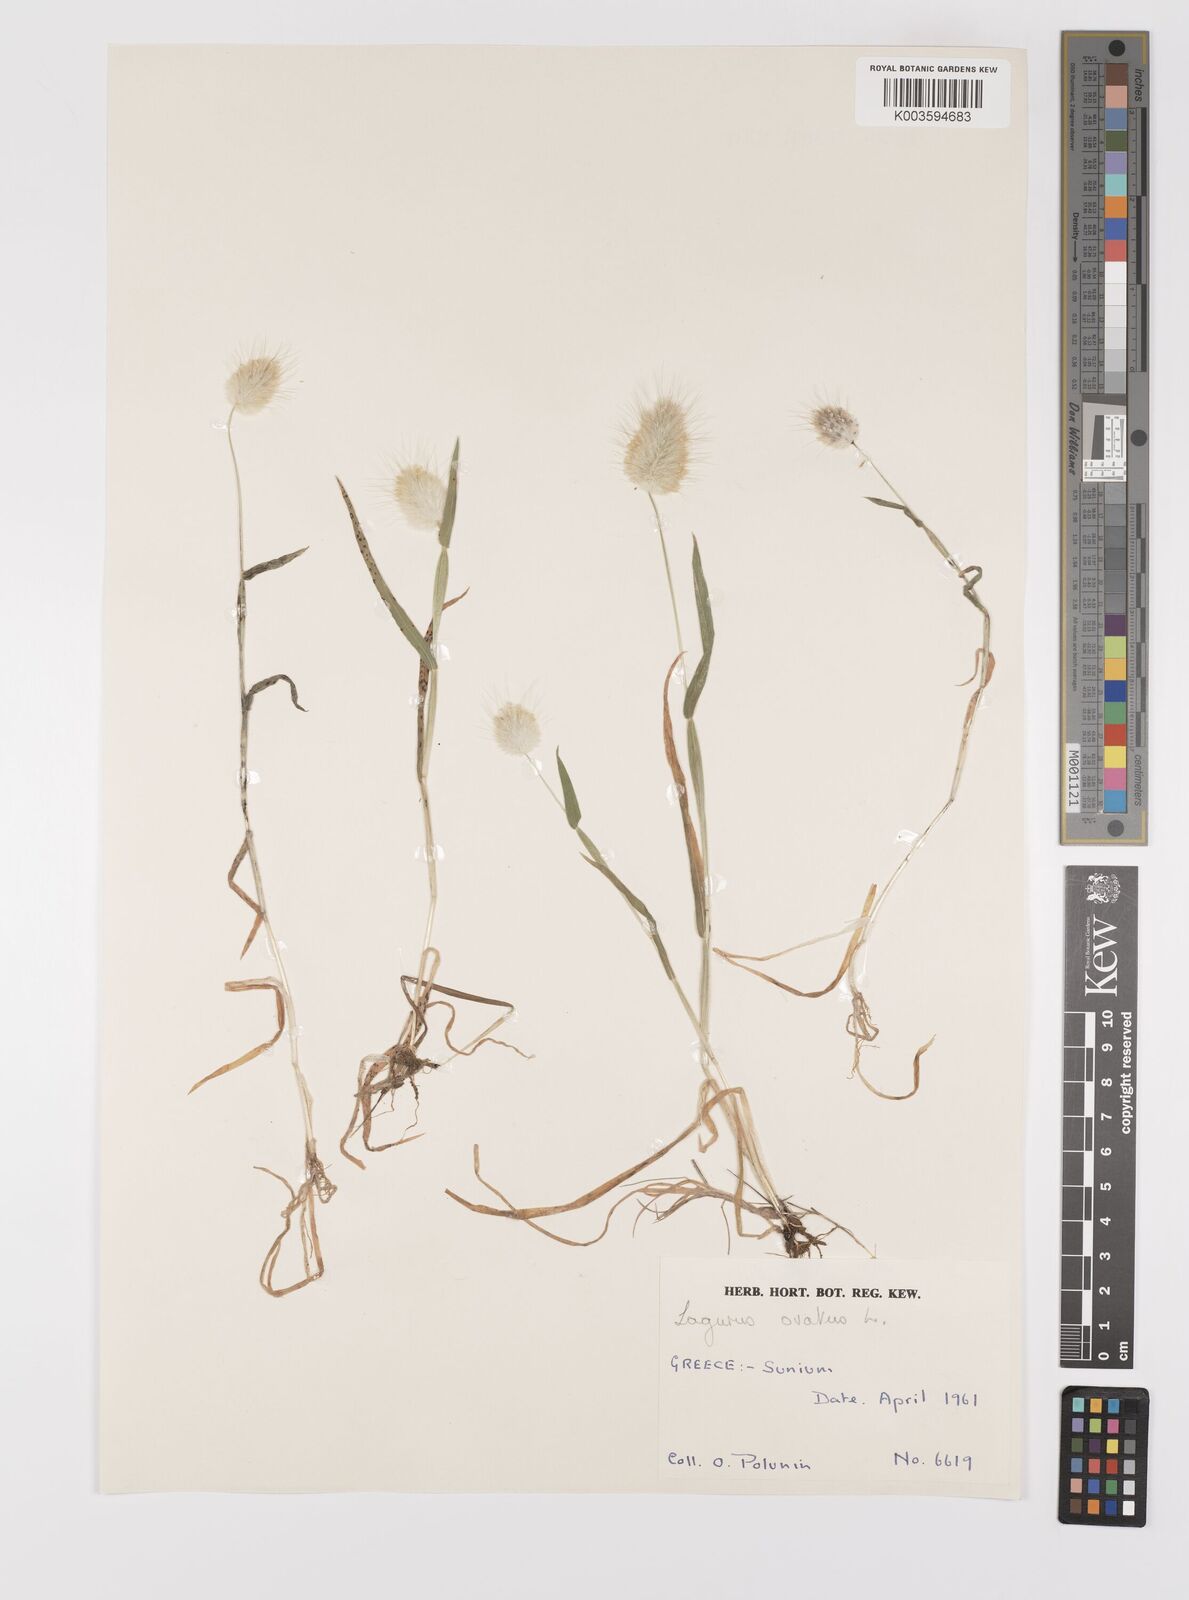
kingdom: Plantae
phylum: Tracheophyta
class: Liliopsida
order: Poales
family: Poaceae
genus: Lagurus
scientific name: Lagurus ovatus
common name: Hare's-tail
